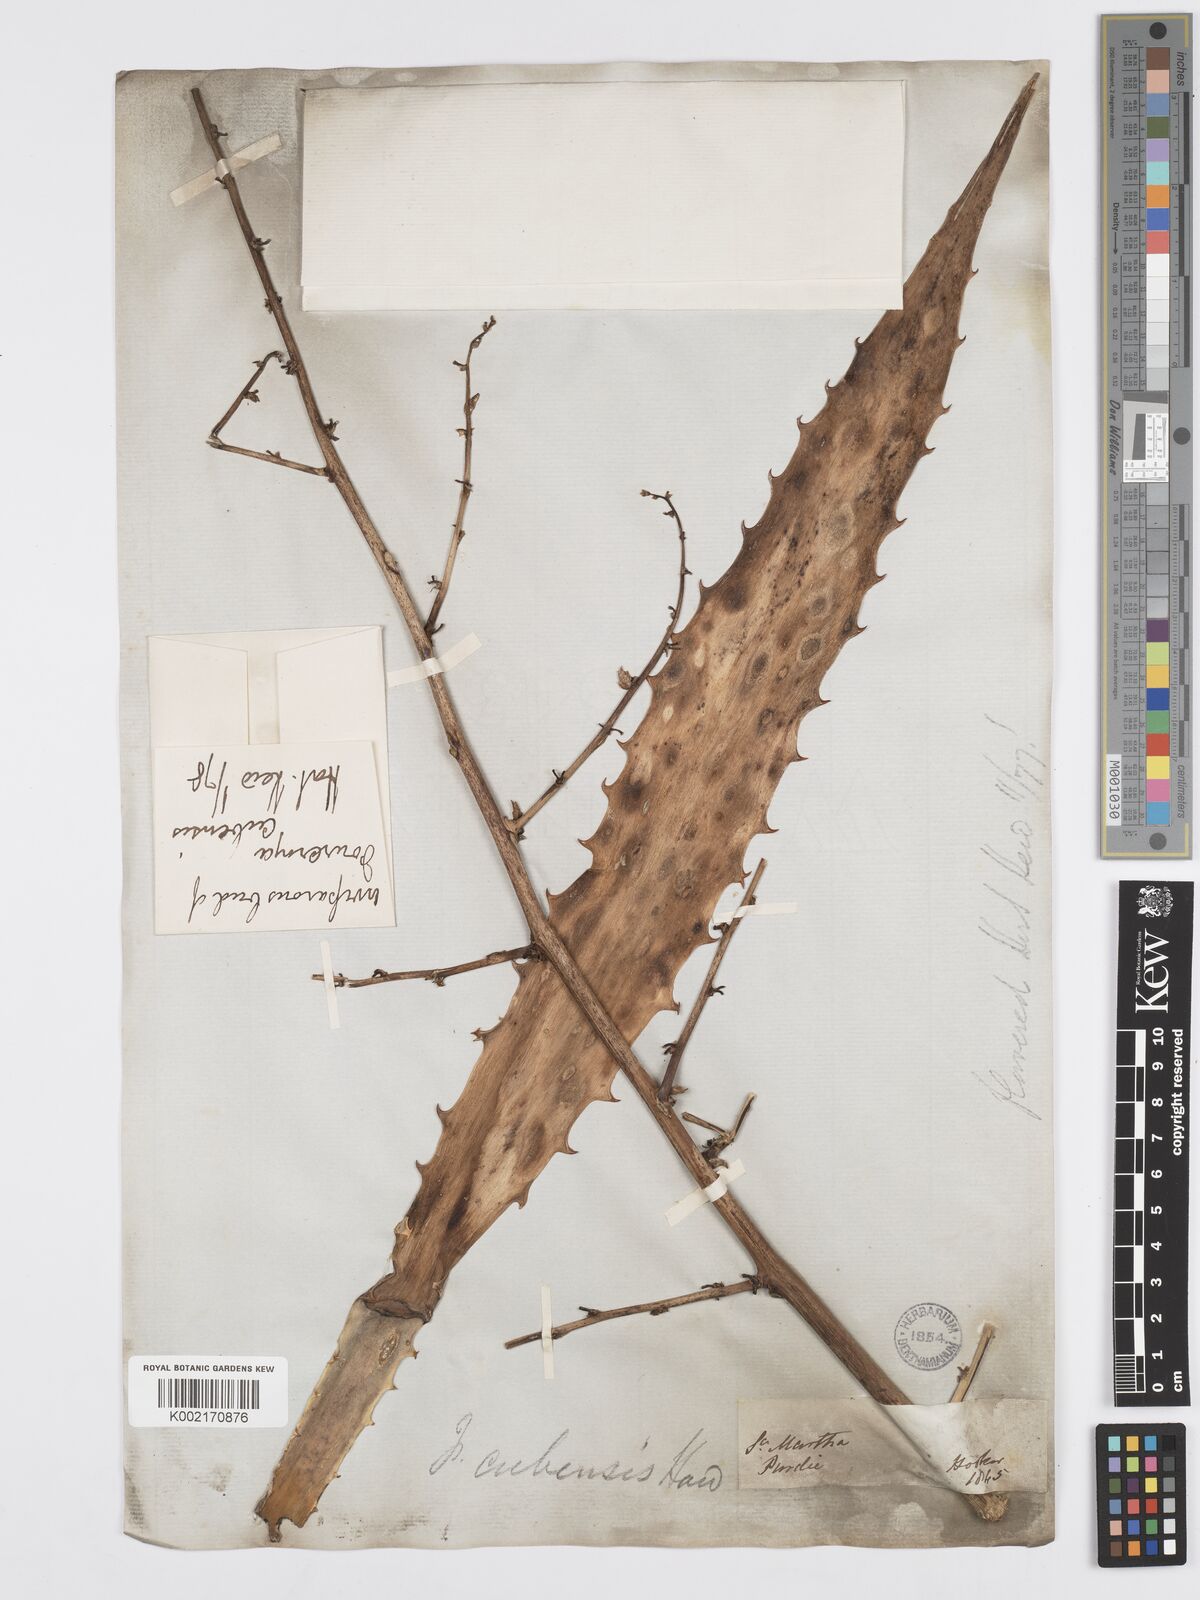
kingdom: Plantae
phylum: Tracheophyta
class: Liliopsida
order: Asparagales
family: Asparagaceae
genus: Furcraea
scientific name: Furcraea stricta
